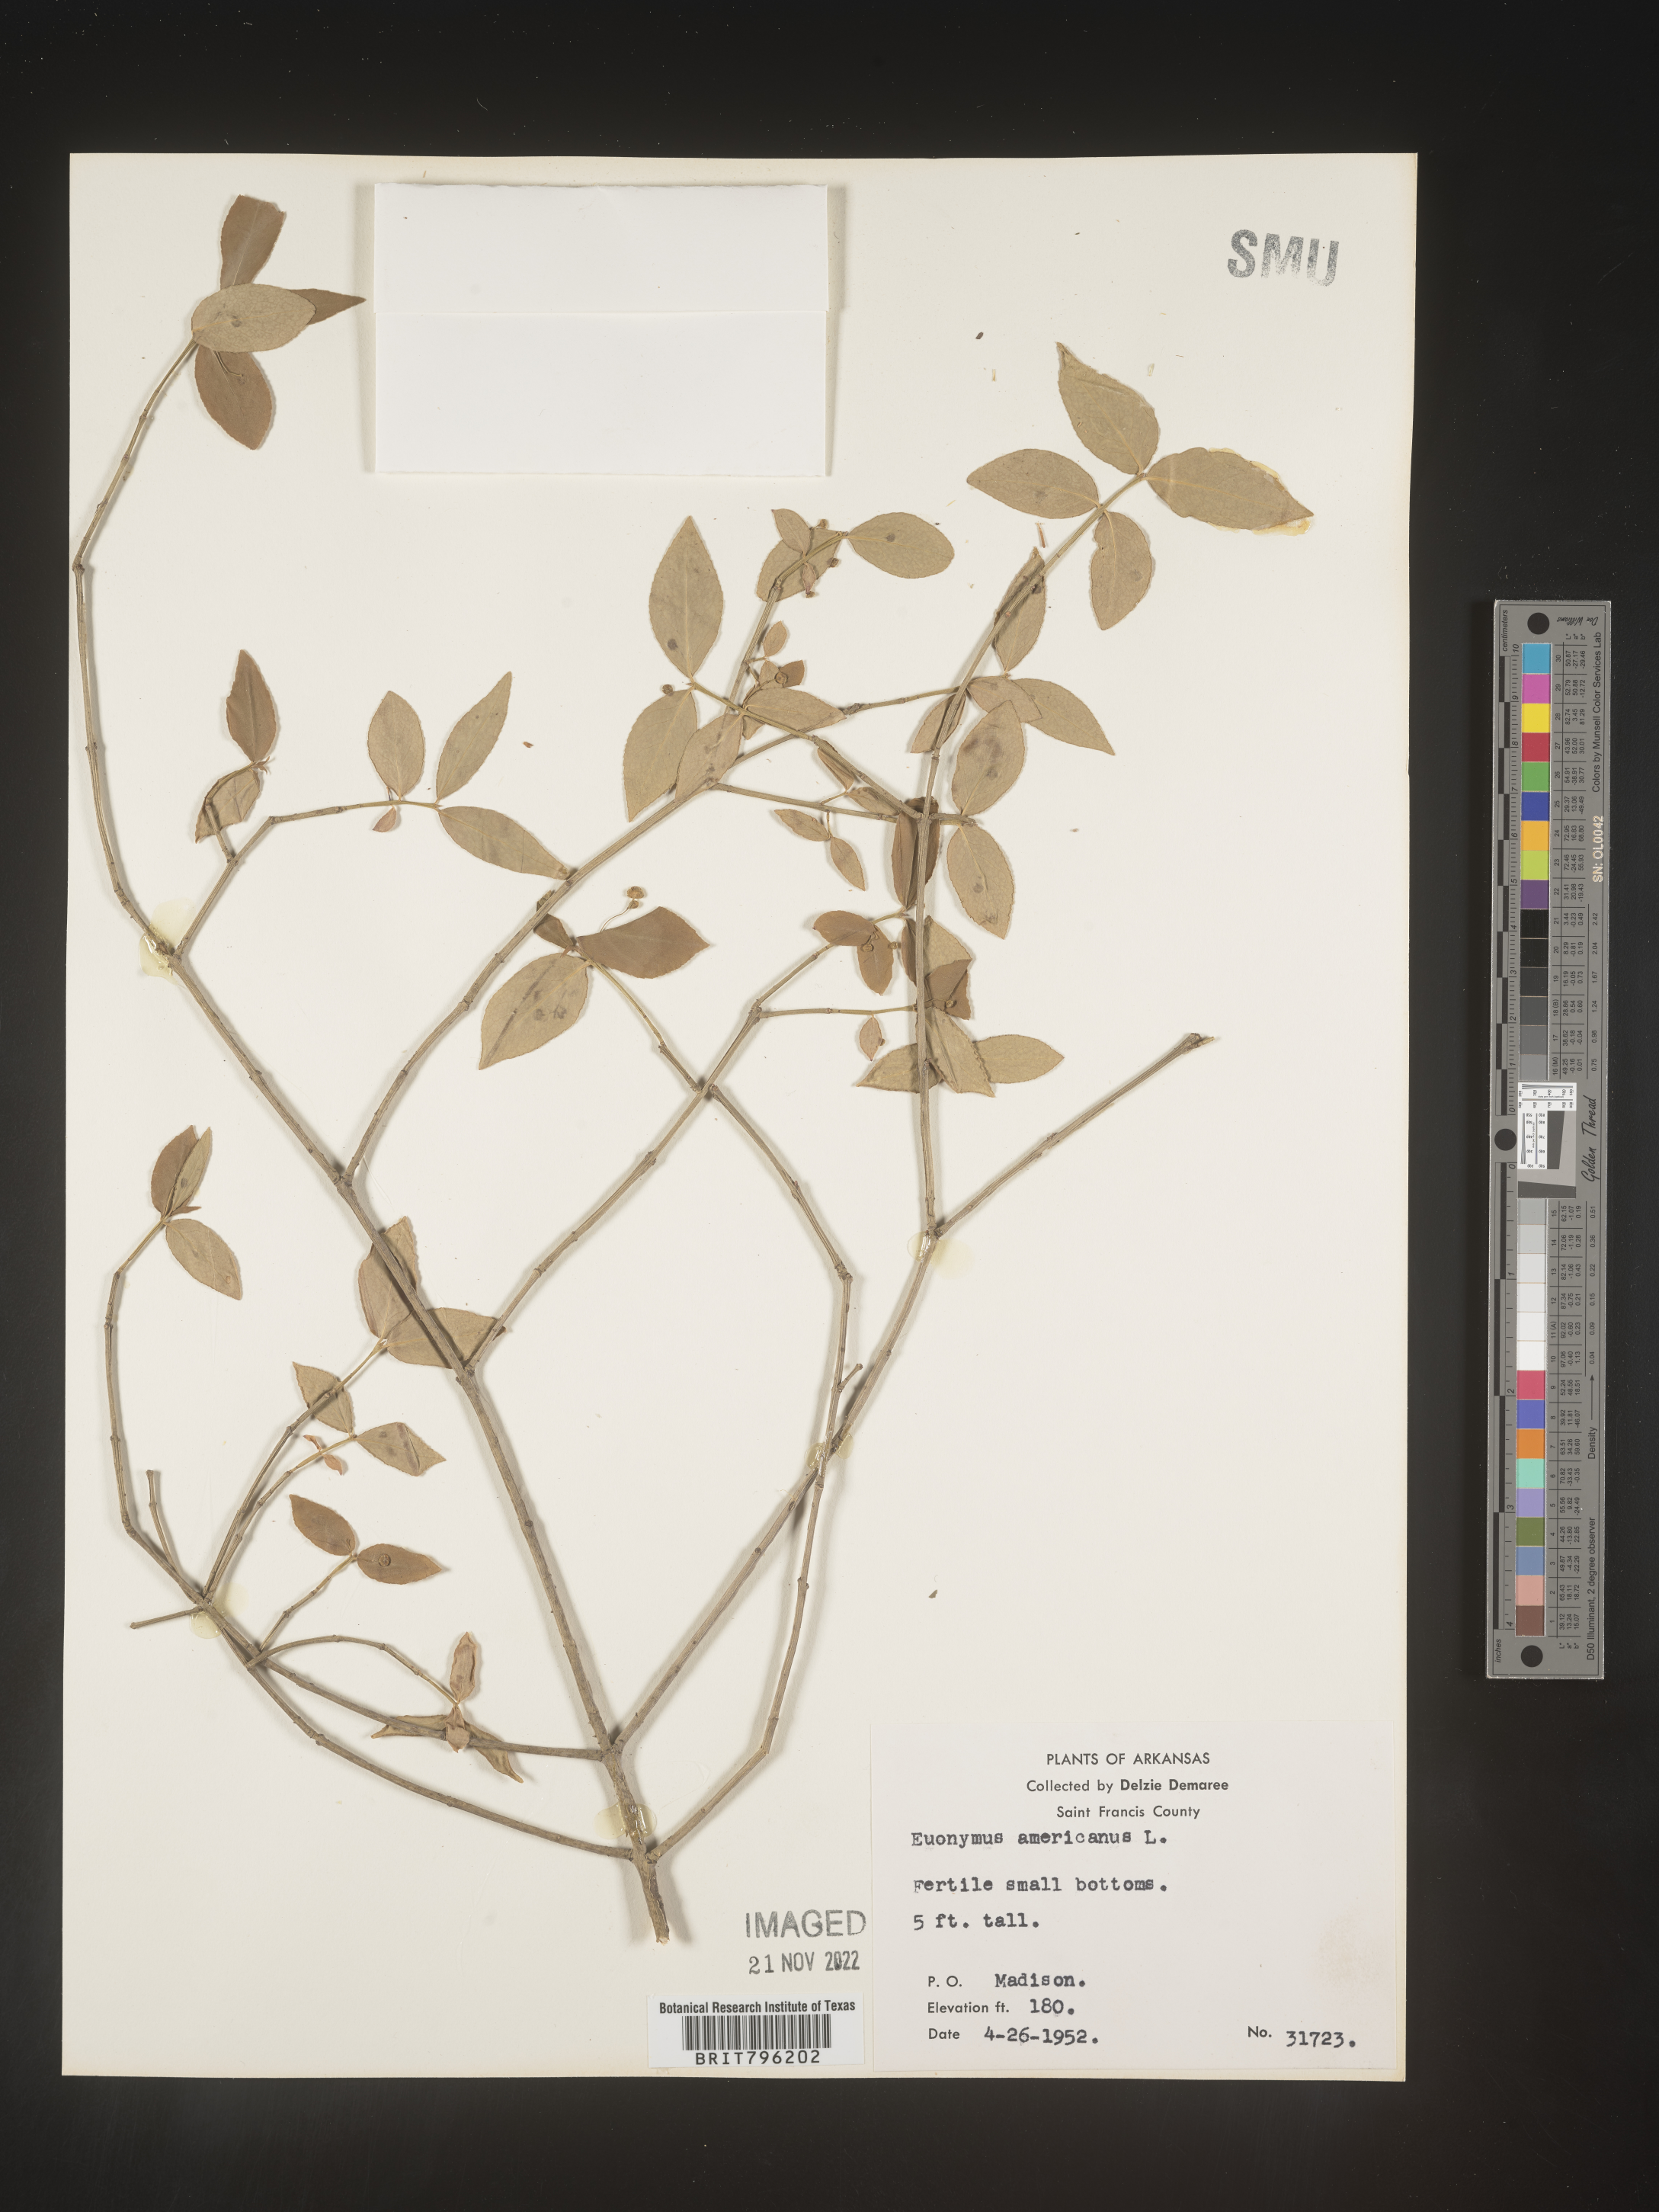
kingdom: Plantae
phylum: Tracheophyta
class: Magnoliopsida
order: Celastrales
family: Celastraceae
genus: Euonymus
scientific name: Euonymus americanus
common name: Bursting-heart
